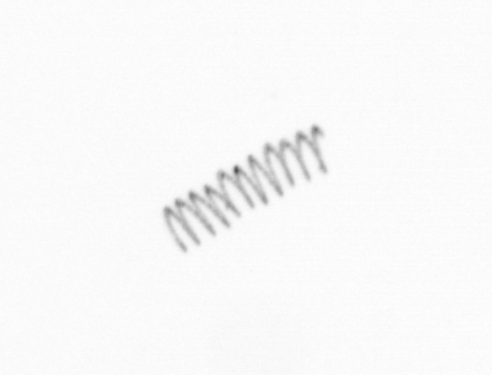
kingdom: Chromista
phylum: Ochrophyta
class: Bacillariophyceae
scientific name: Bacillariophyceae
